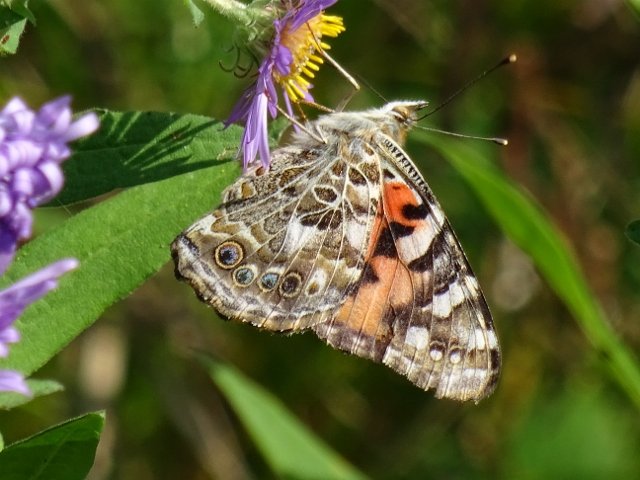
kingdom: Animalia
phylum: Arthropoda
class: Insecta
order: Lepidoptera
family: Nymphalidae
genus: Vanessa
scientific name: Vanessa cardui
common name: Painted Lady
